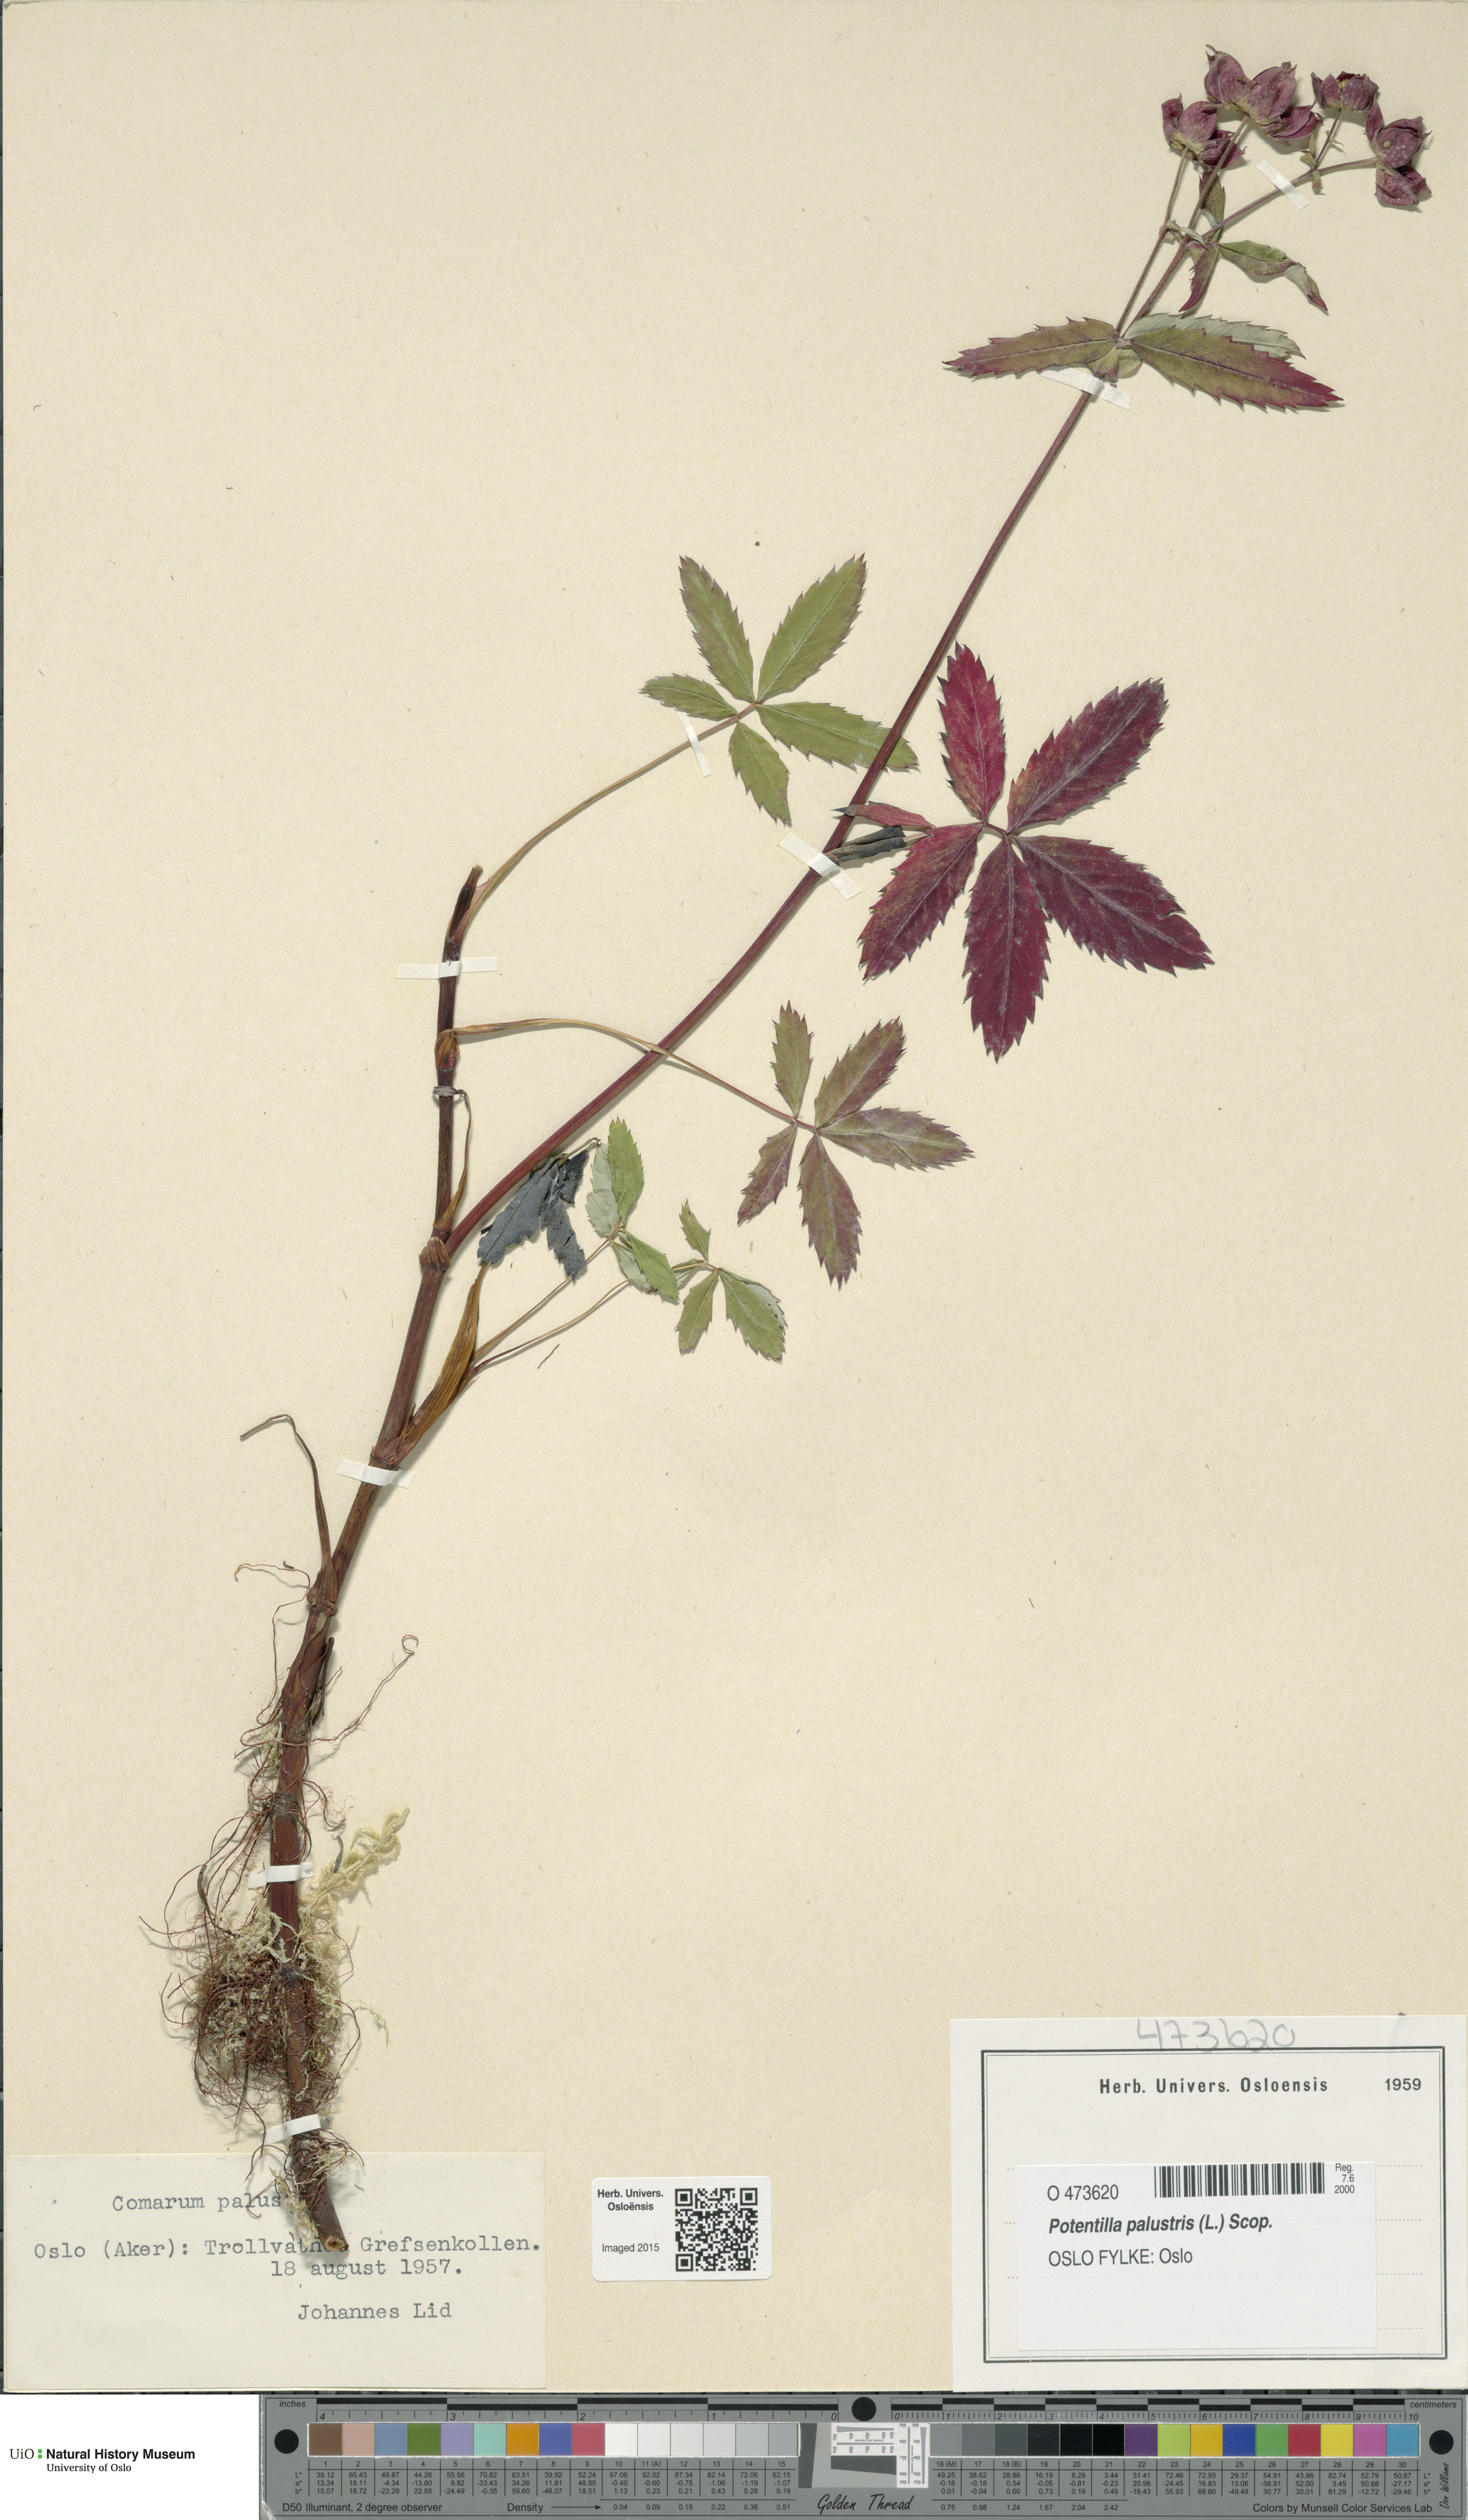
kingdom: Plantae
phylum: Tracheophyta
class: Magnoliopsida
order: Rosales
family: Rosaceae
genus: Comarum
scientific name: Comarum palustre
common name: Marsh cinquefoil
